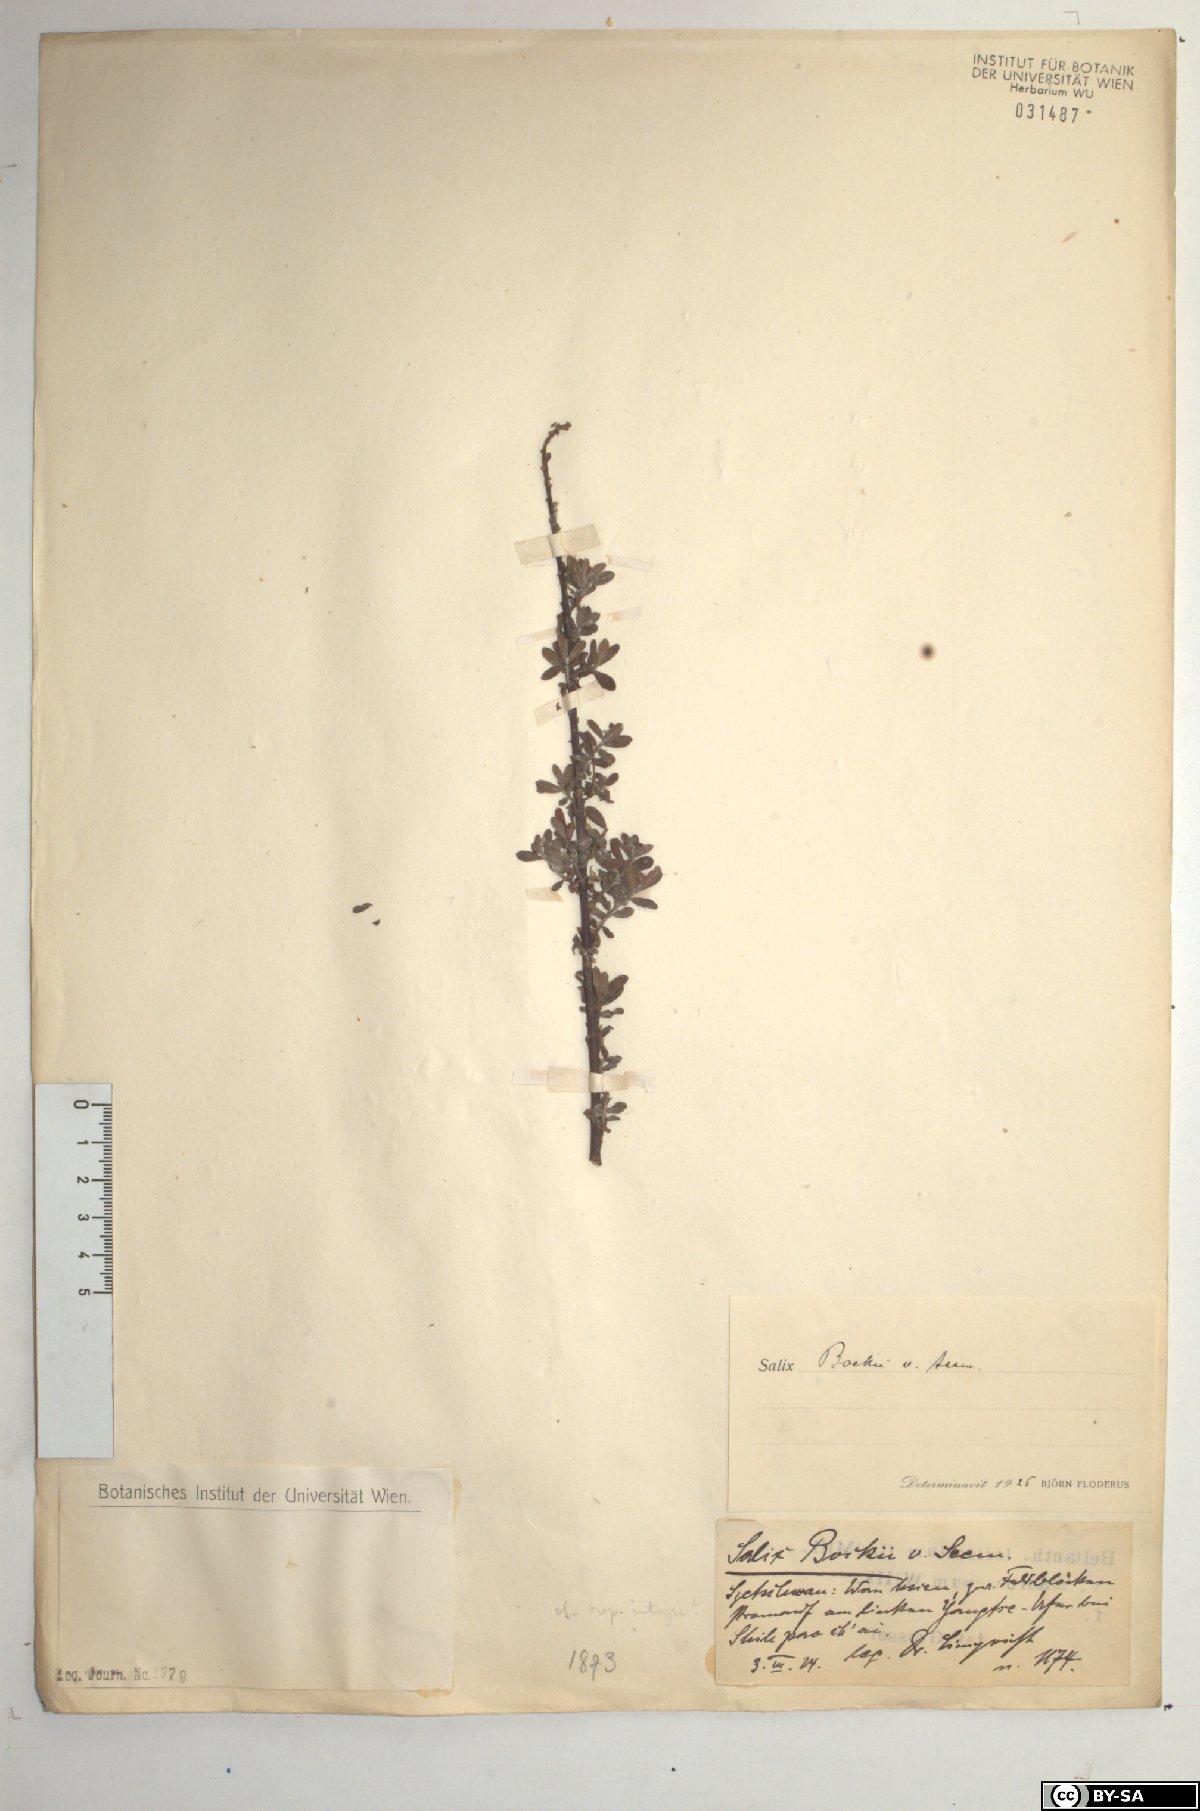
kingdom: Plantae
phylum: Tracheophyta
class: Magnoliopsida
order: Malpighiales
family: Salicaceae
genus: Salix
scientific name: Salix variegata
